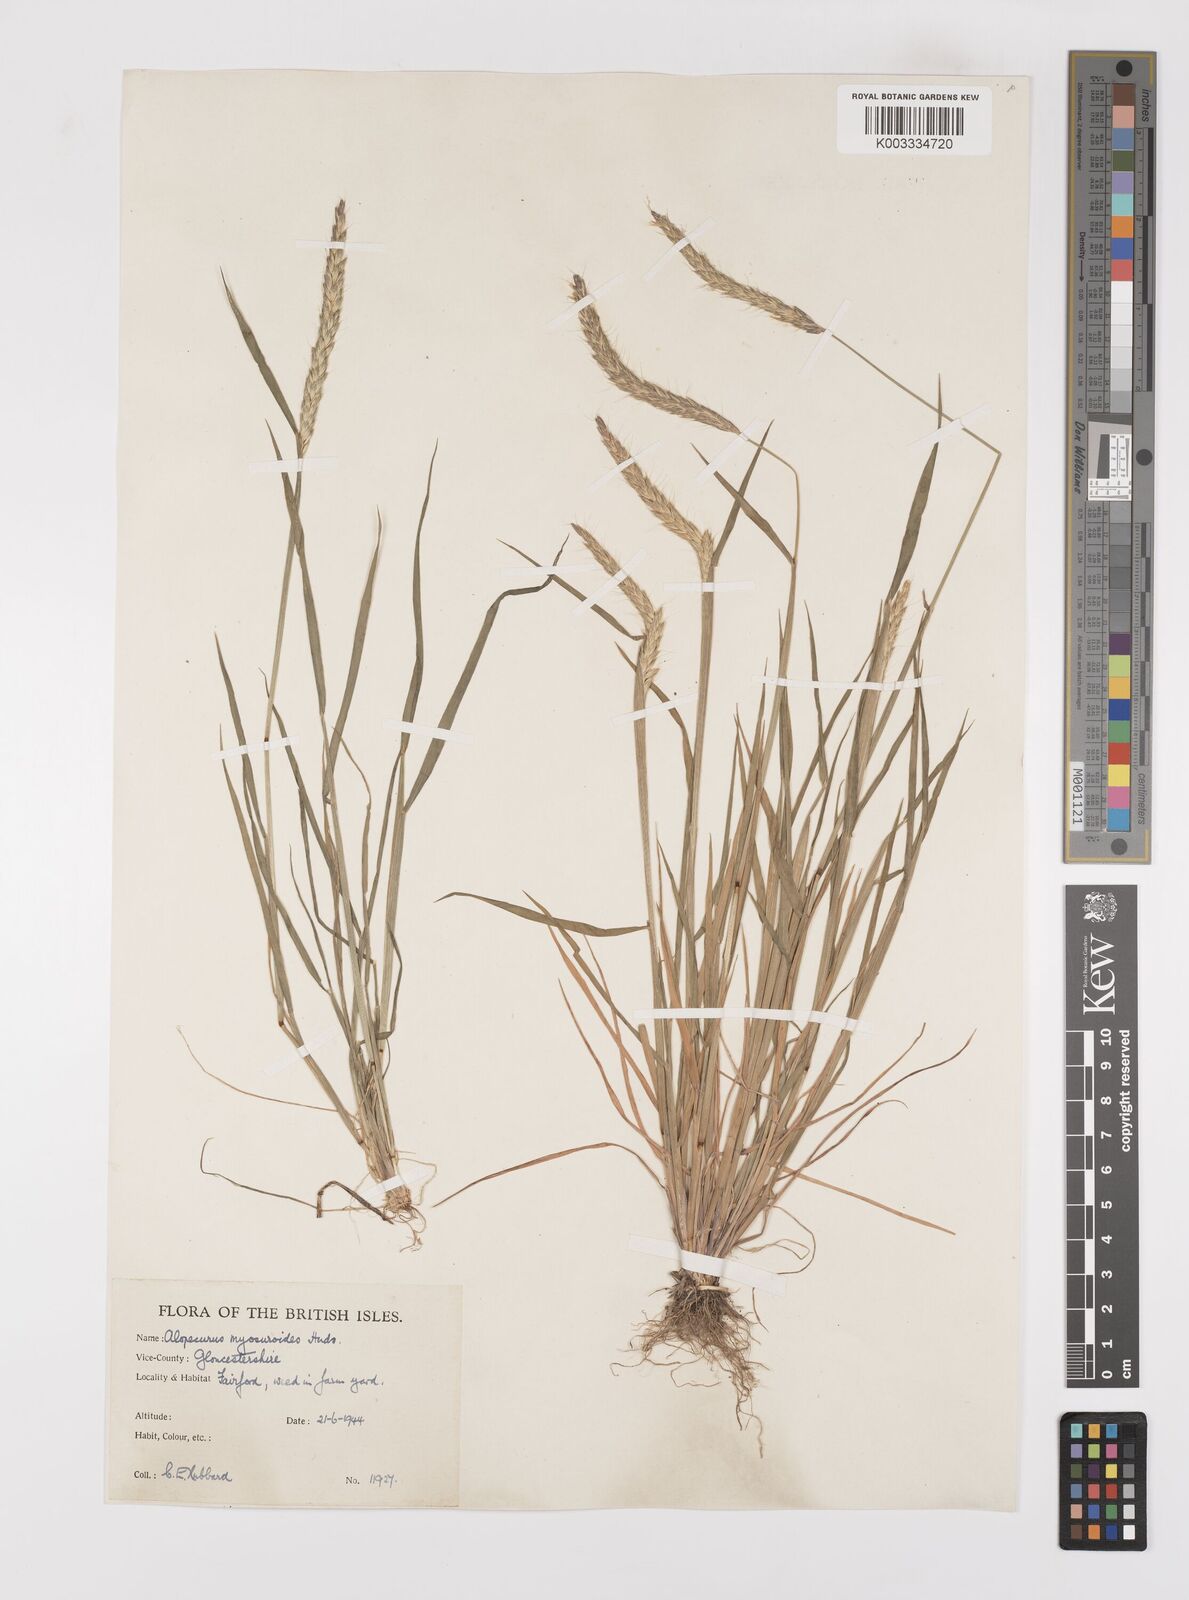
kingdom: Plantae
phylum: Tracheophyta
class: Liliopsida
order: Poales
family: Poaceae
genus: Alopecurus
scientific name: Alopecurus myosuroides
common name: Black-grass
